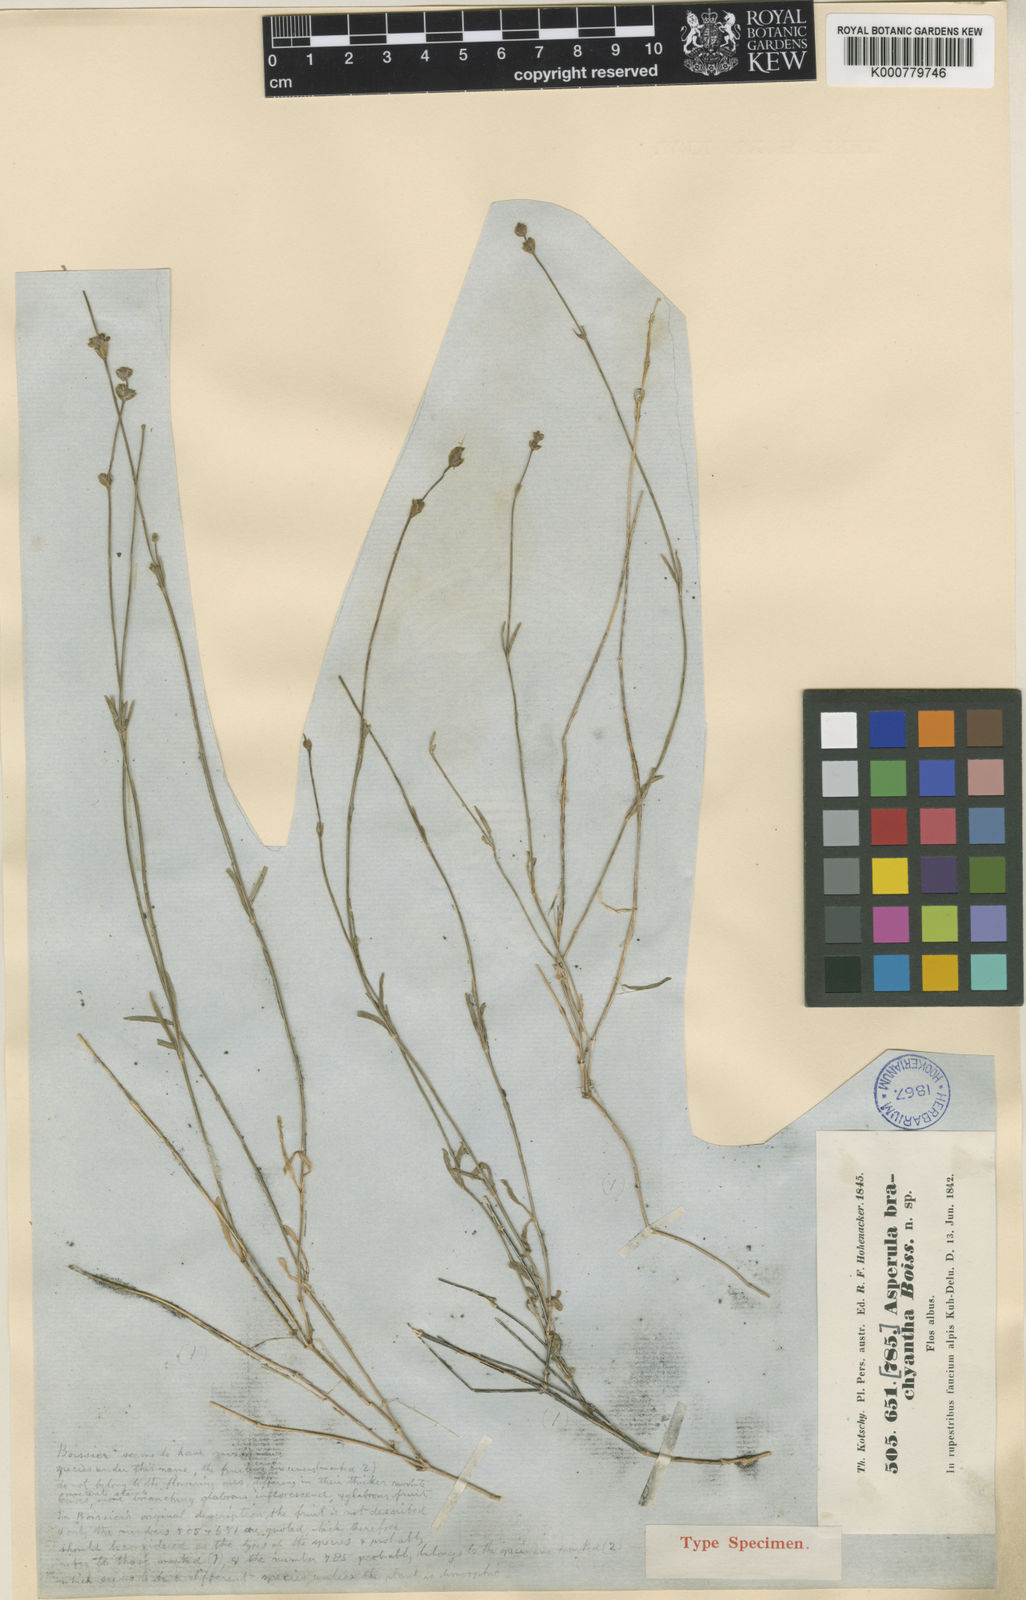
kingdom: Plantae
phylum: Tracheophyta
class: Magnoliopsida
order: Gentianales
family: Rubiaceae
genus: Asperula
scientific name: Asperula brachyantha
